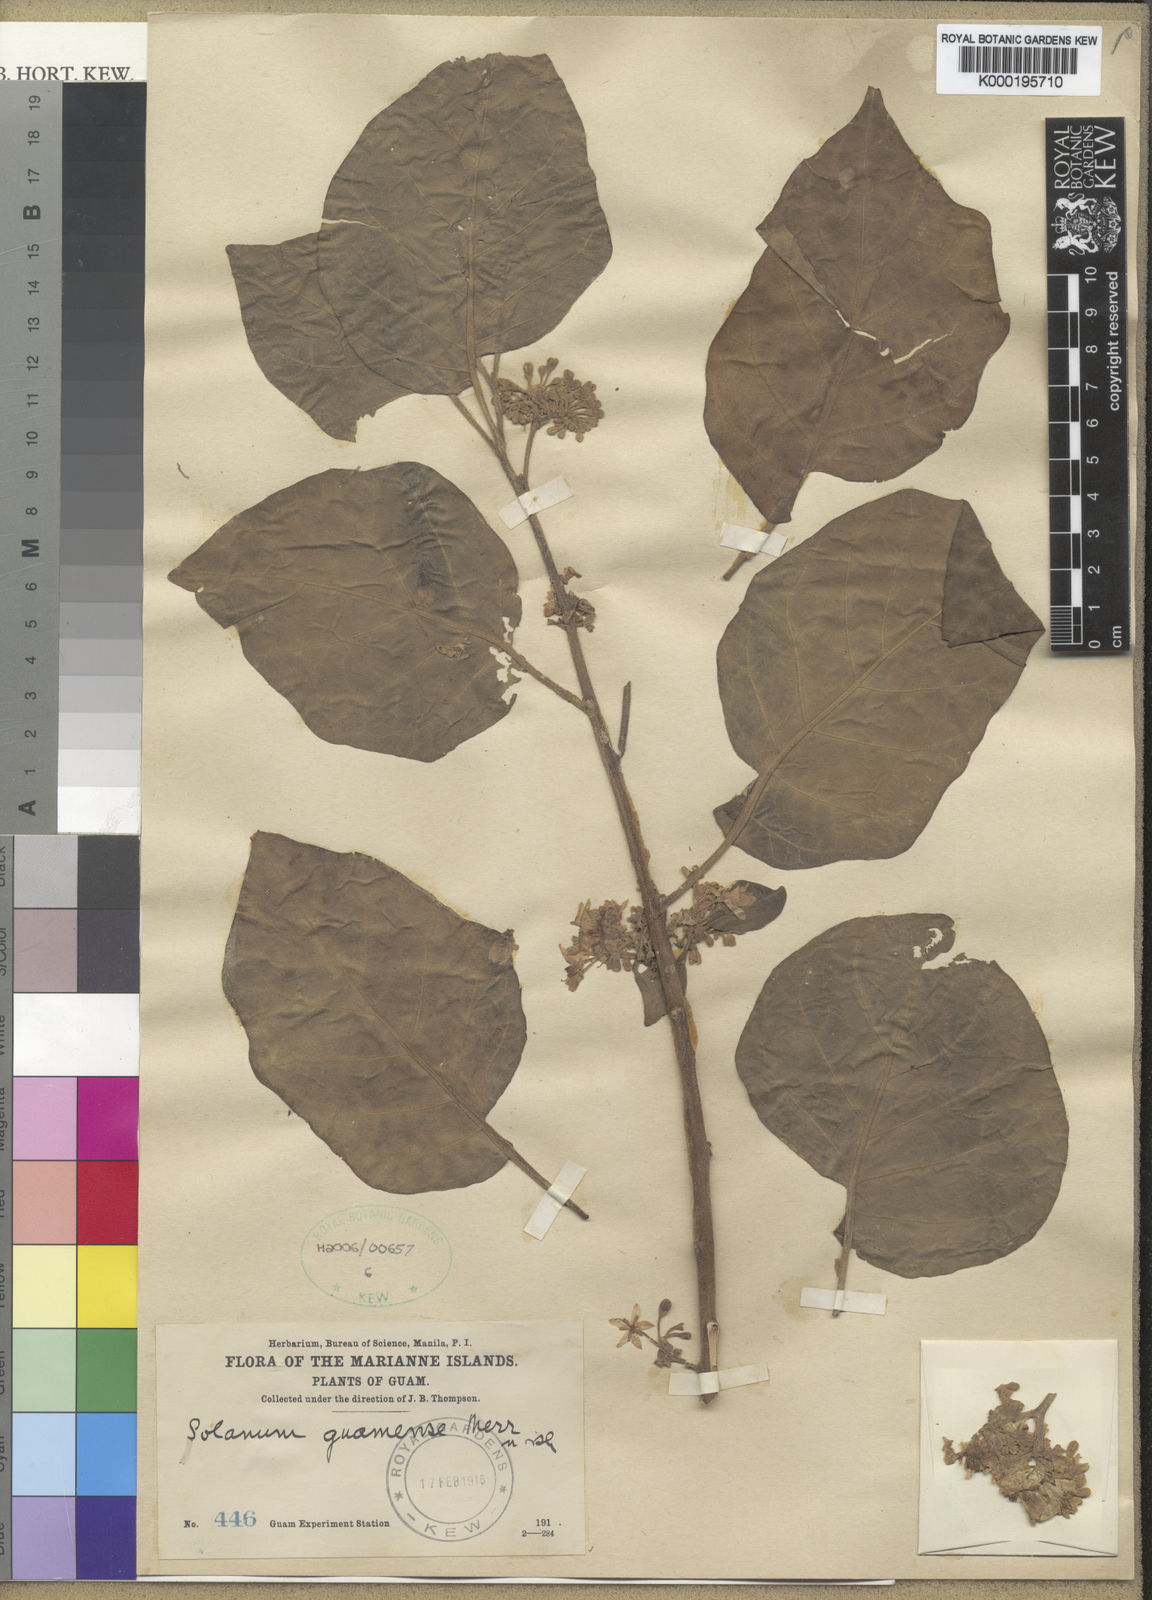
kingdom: Plantae
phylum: Tracheophyta
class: Magnoliopsida
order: Solanales
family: Solanaceae
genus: Solanum
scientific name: Solanum guamense
